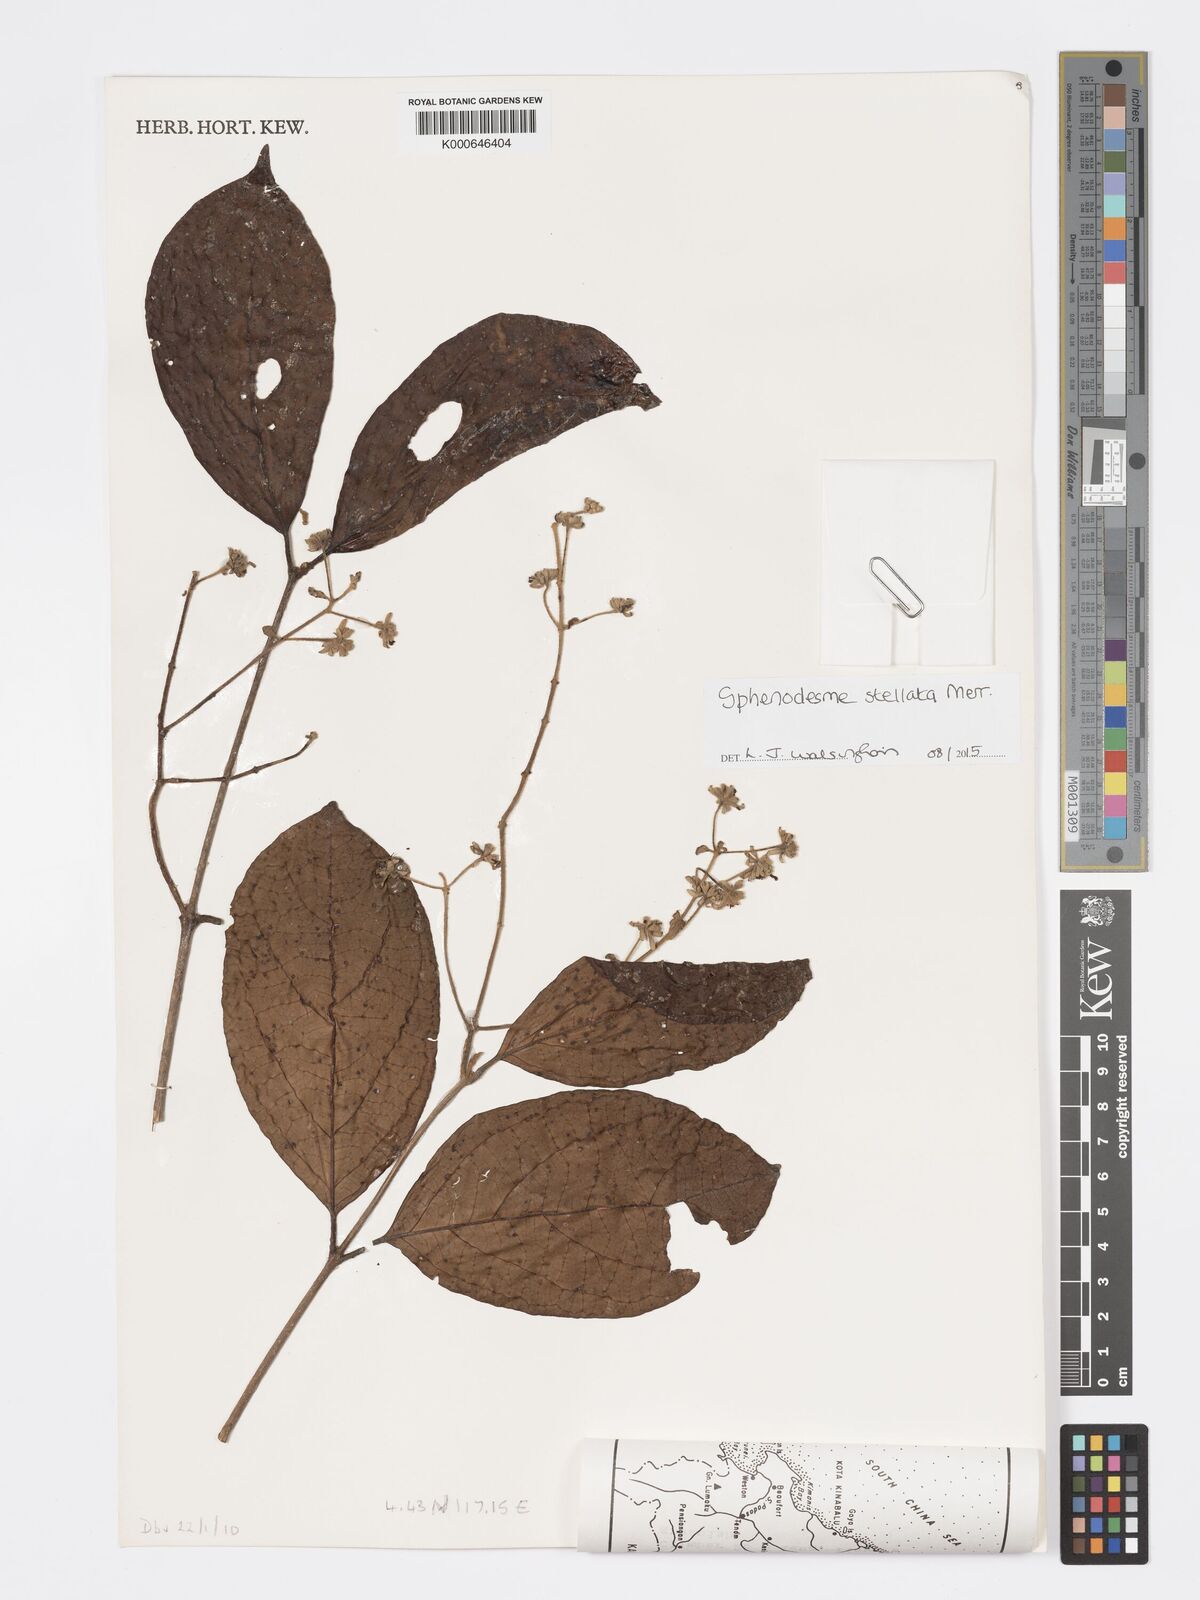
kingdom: Plantae
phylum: Tracheophyta
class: Magnoliopsida
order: Lamiales
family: Lamiaceae
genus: Sphenodesme
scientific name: Sphenodesme stellata
